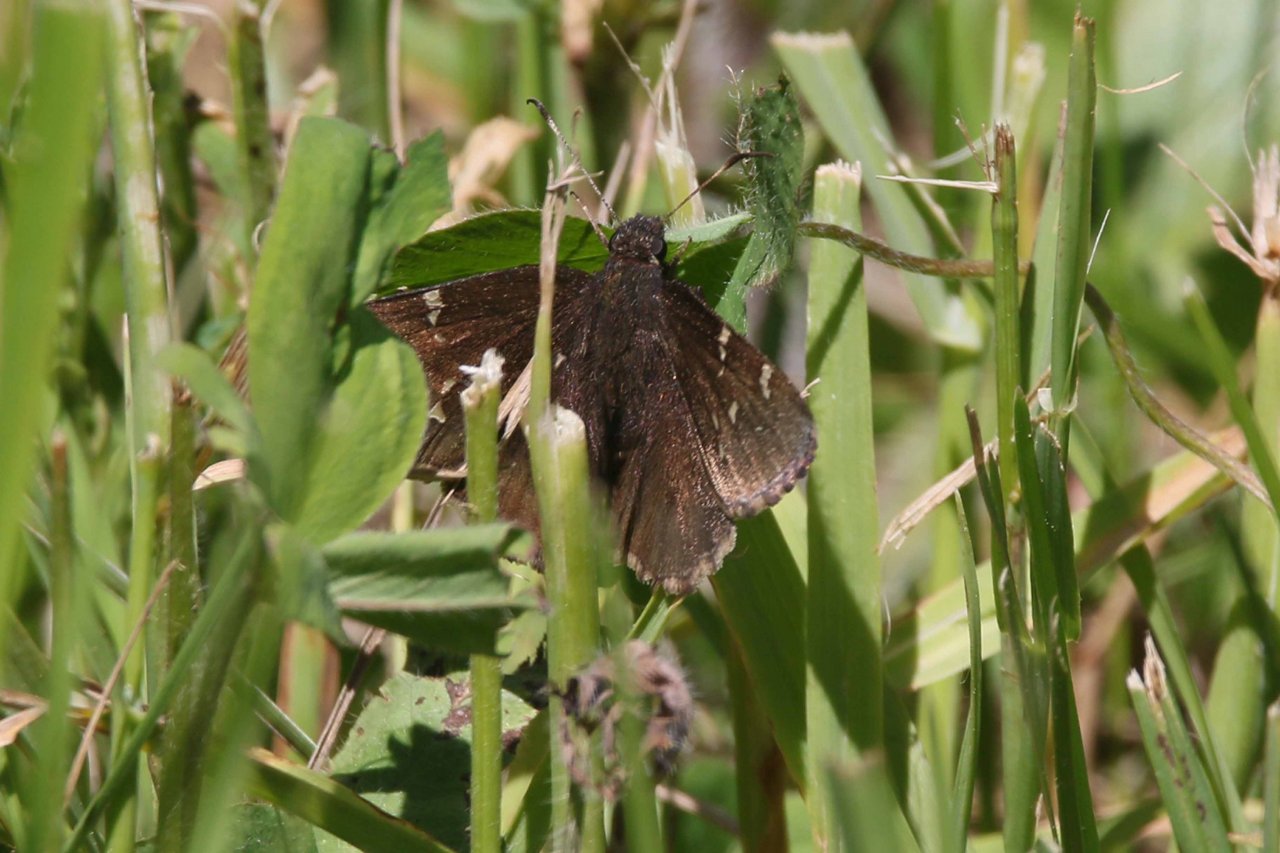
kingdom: Animalia
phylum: Arthropoda
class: Insecta
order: Lepidoptera
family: Hesperiidae
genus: Autochton
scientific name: Autochton
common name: Northern Cloudywing
